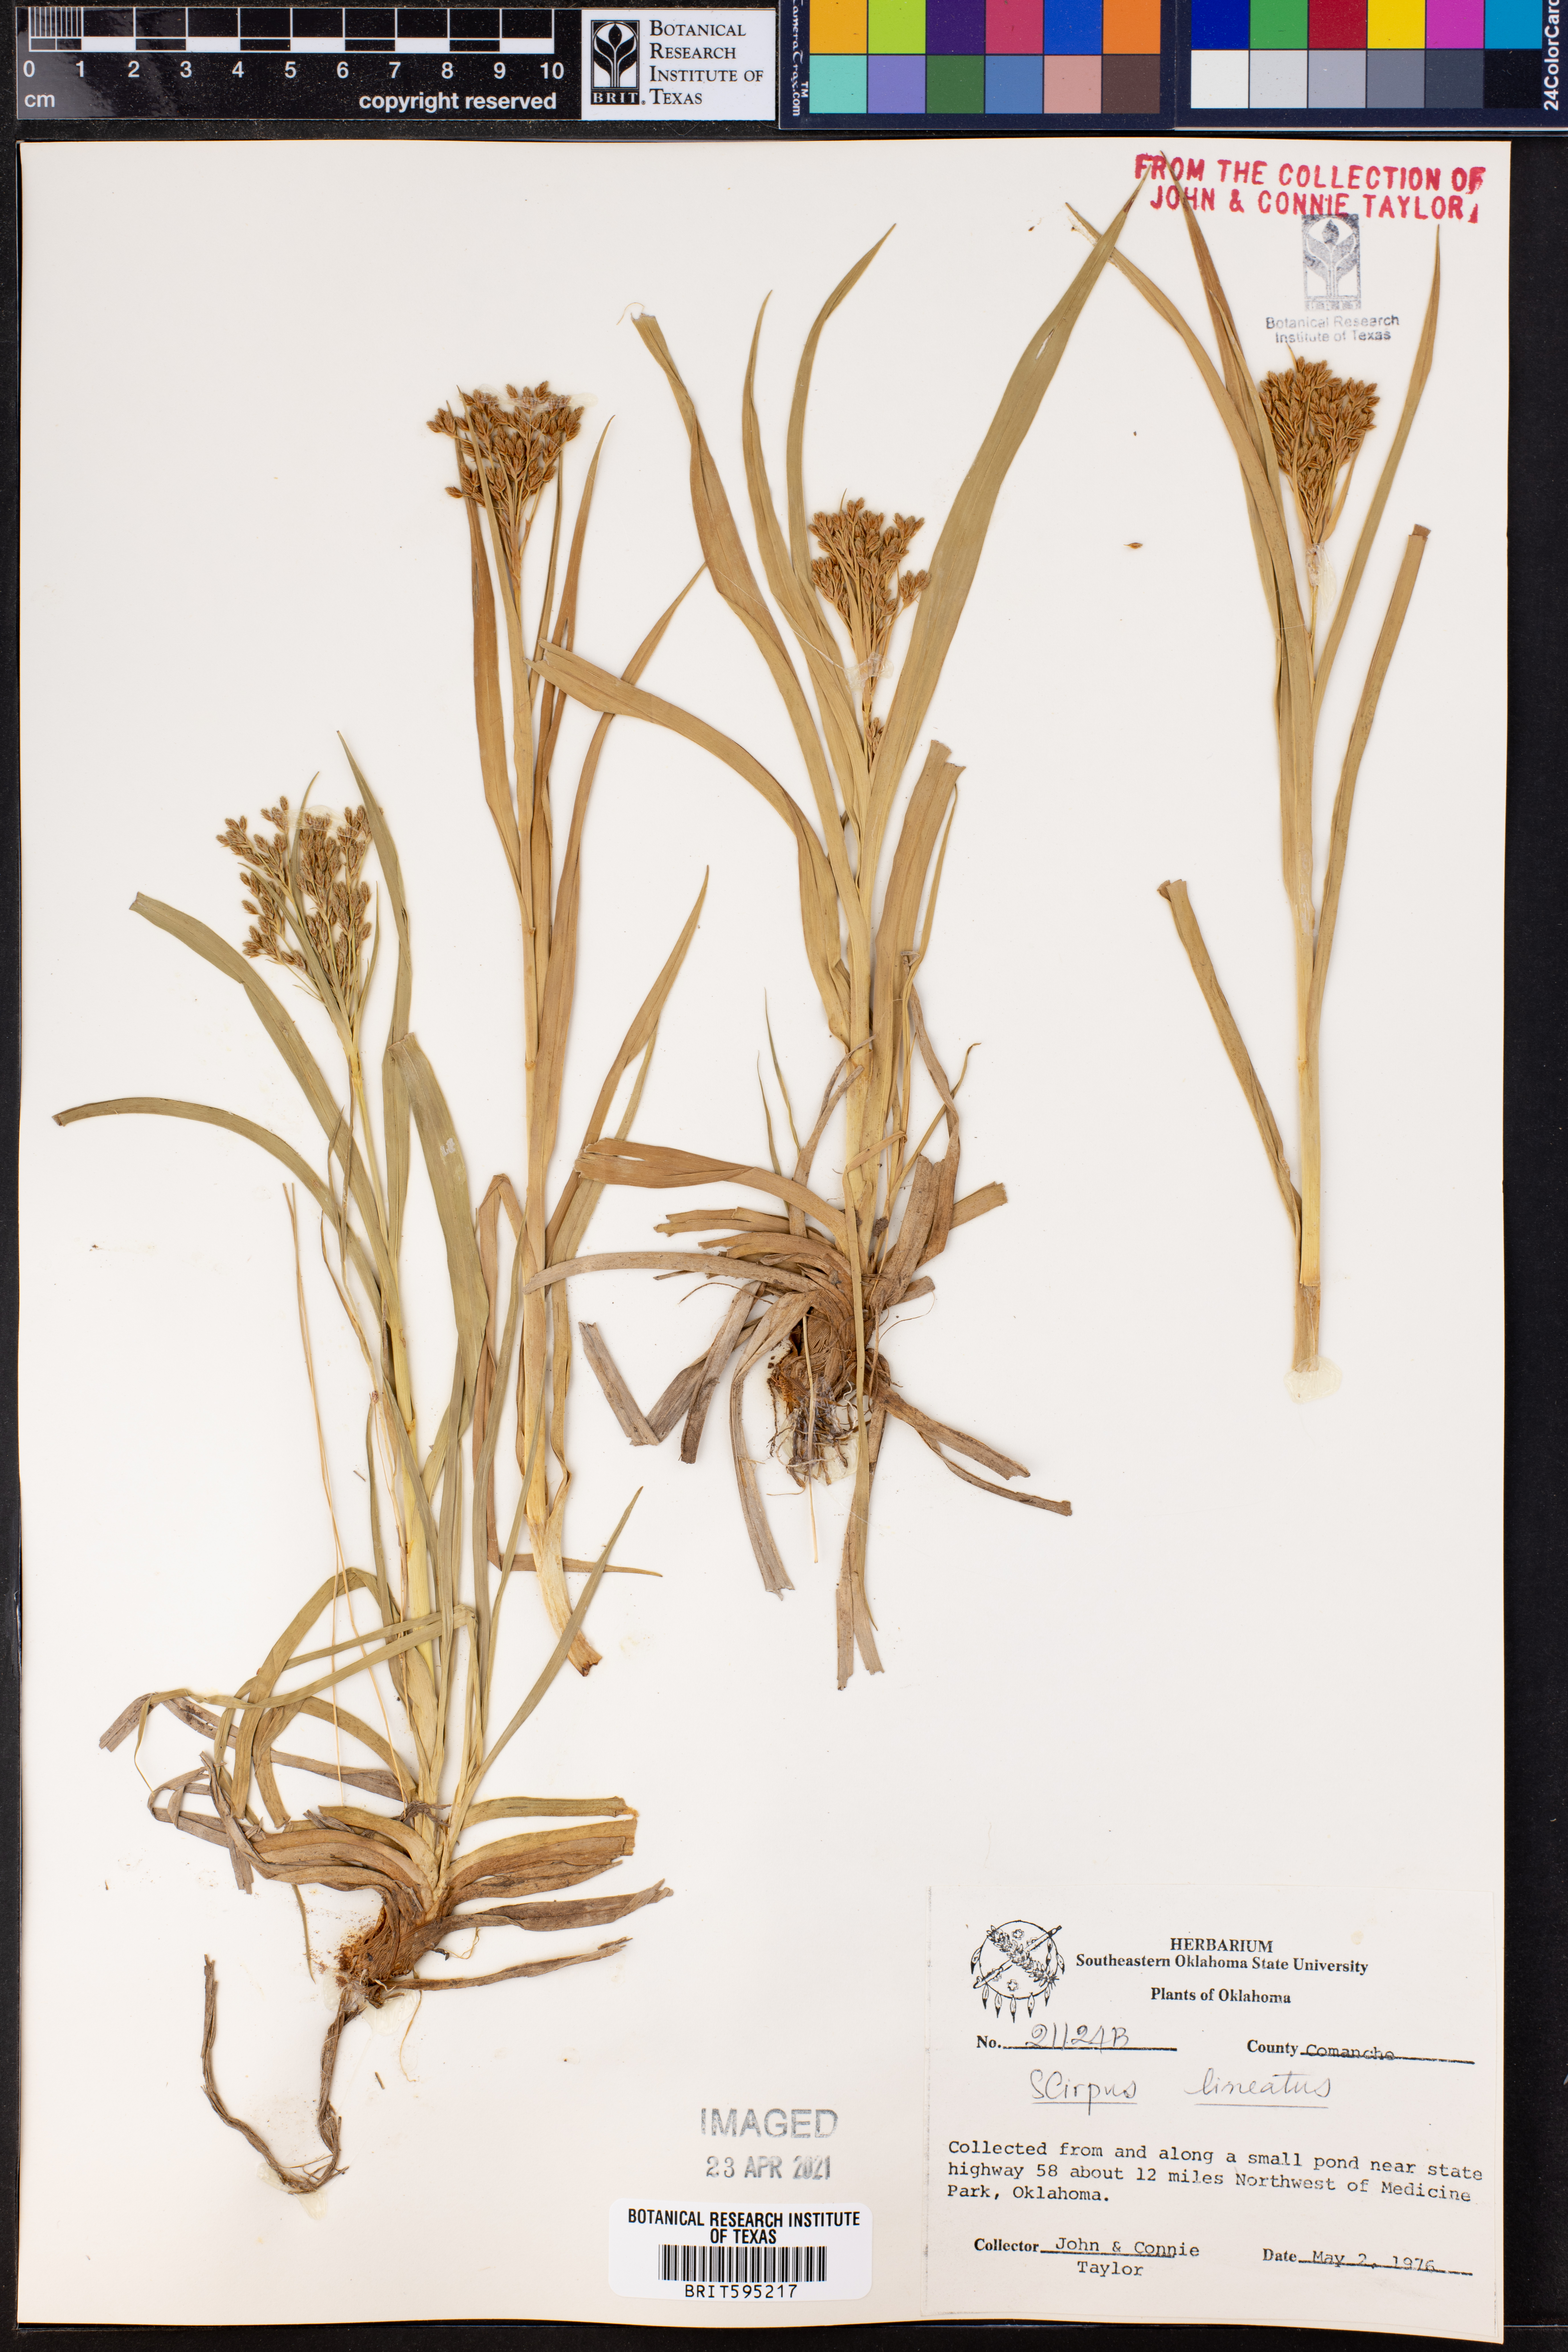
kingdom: Plantae
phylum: Tracheophyta
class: Liliopsida
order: Poales
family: Cyperaceae
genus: Scirpus
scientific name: Scirpus lineatus
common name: Drooping bulrush
